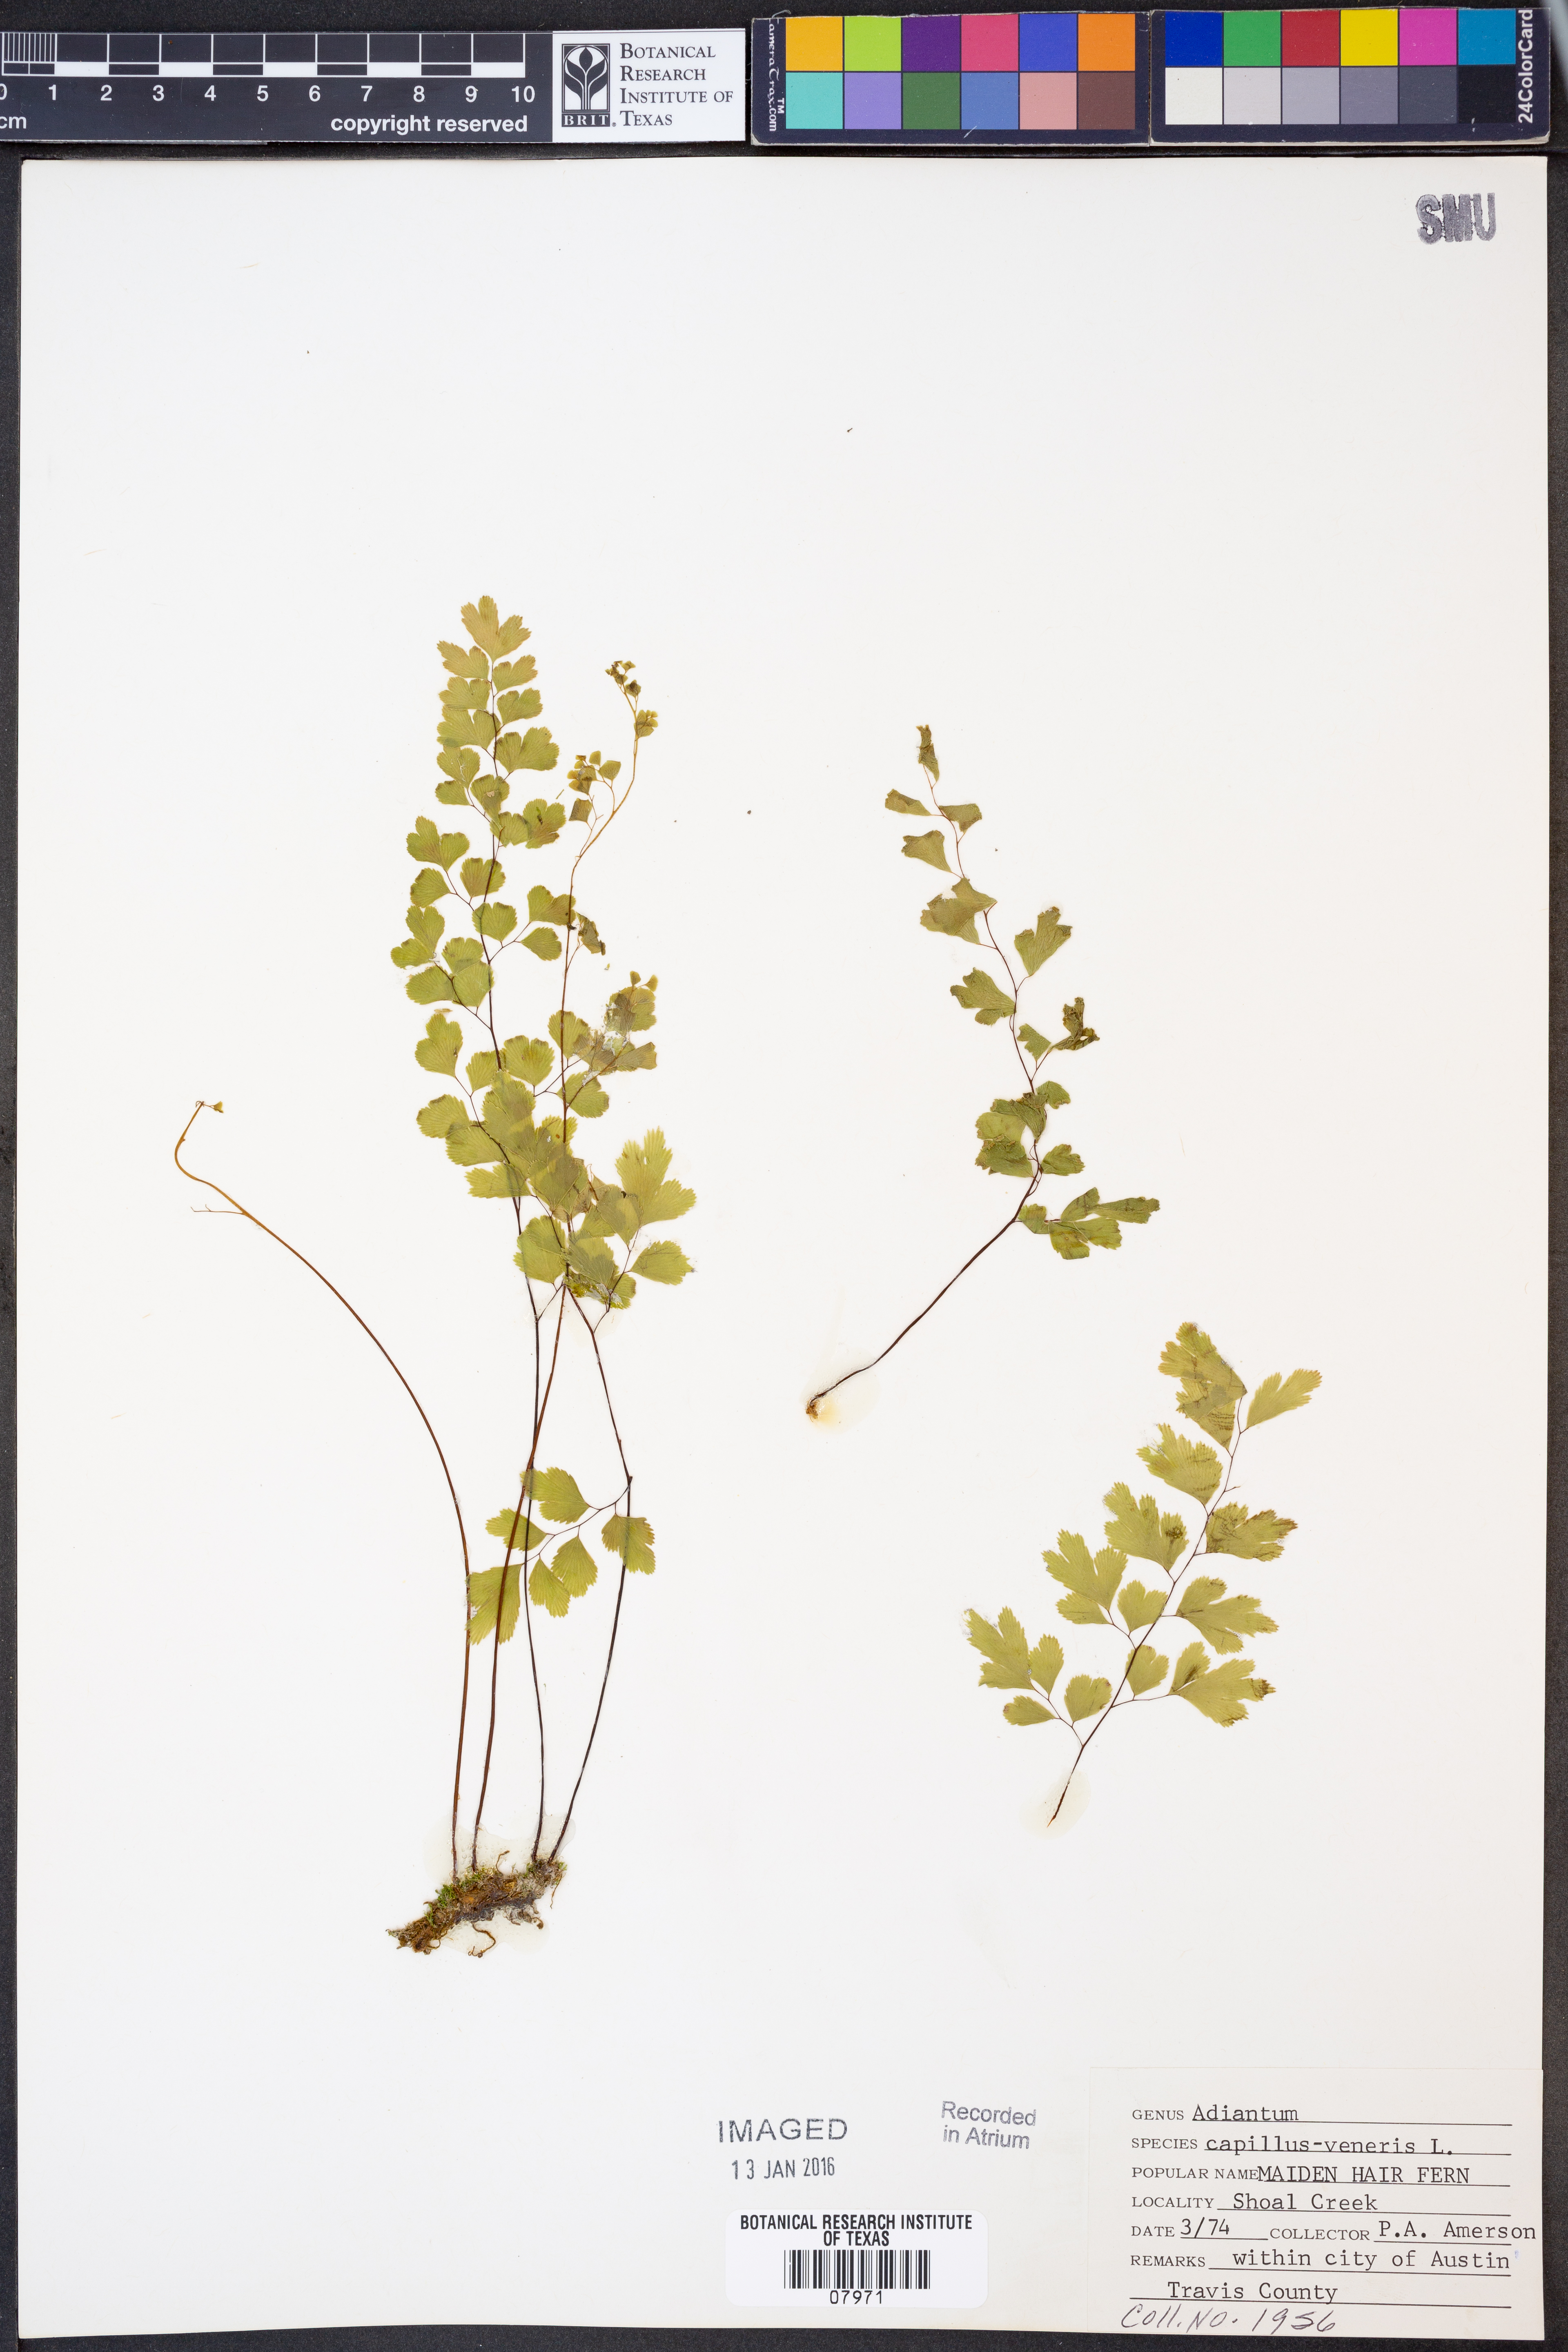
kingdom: Plantae
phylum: Tracheophyta
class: Polypodiopsida
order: Polypodiales
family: Pteridaceae
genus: Adiantum
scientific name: Adiantum capillus-veneris
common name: Maidenhair fern
